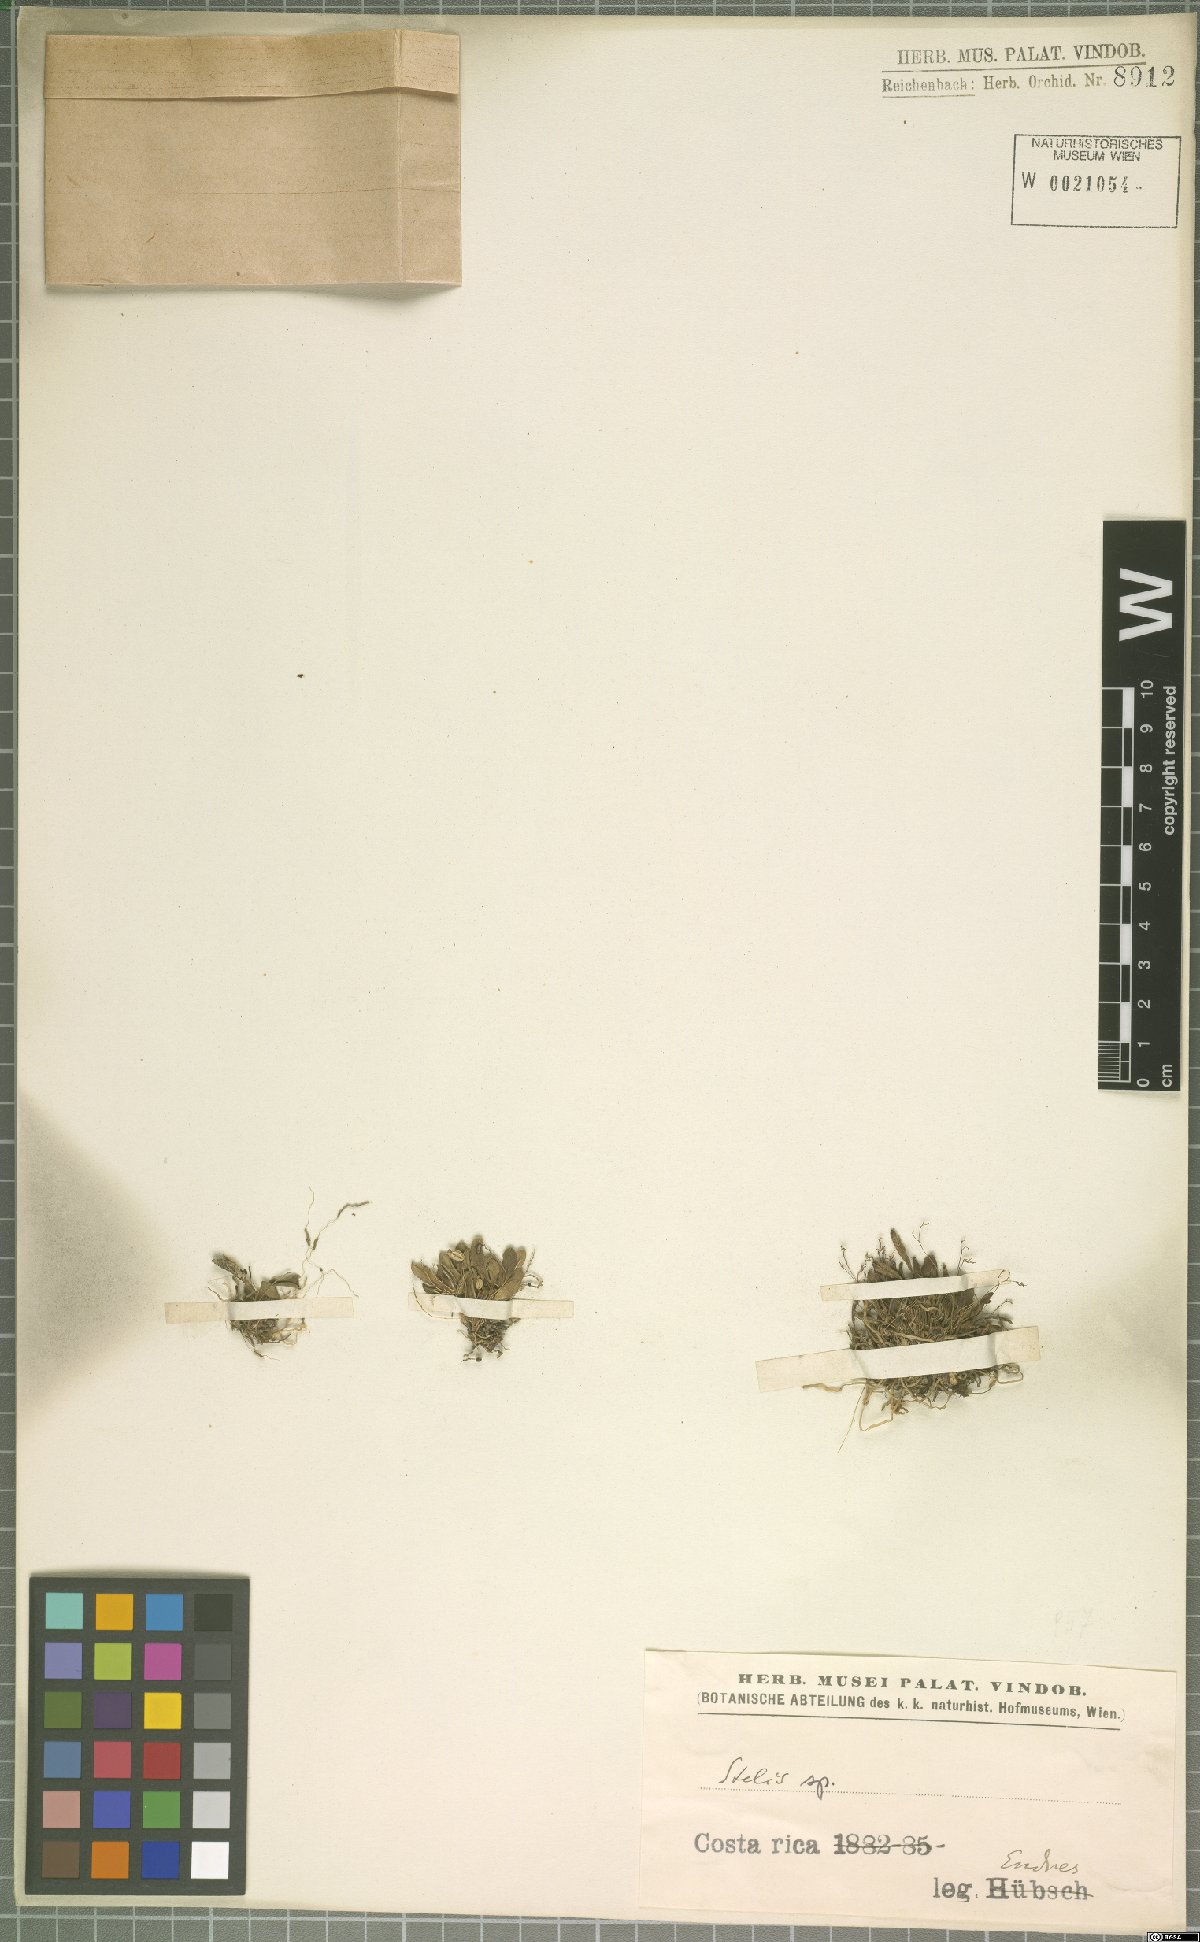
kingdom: Plantae
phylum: Tracheophyta
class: Liliopsida
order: Asparagales
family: Orchidaceae
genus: Stelis
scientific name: Stelis
